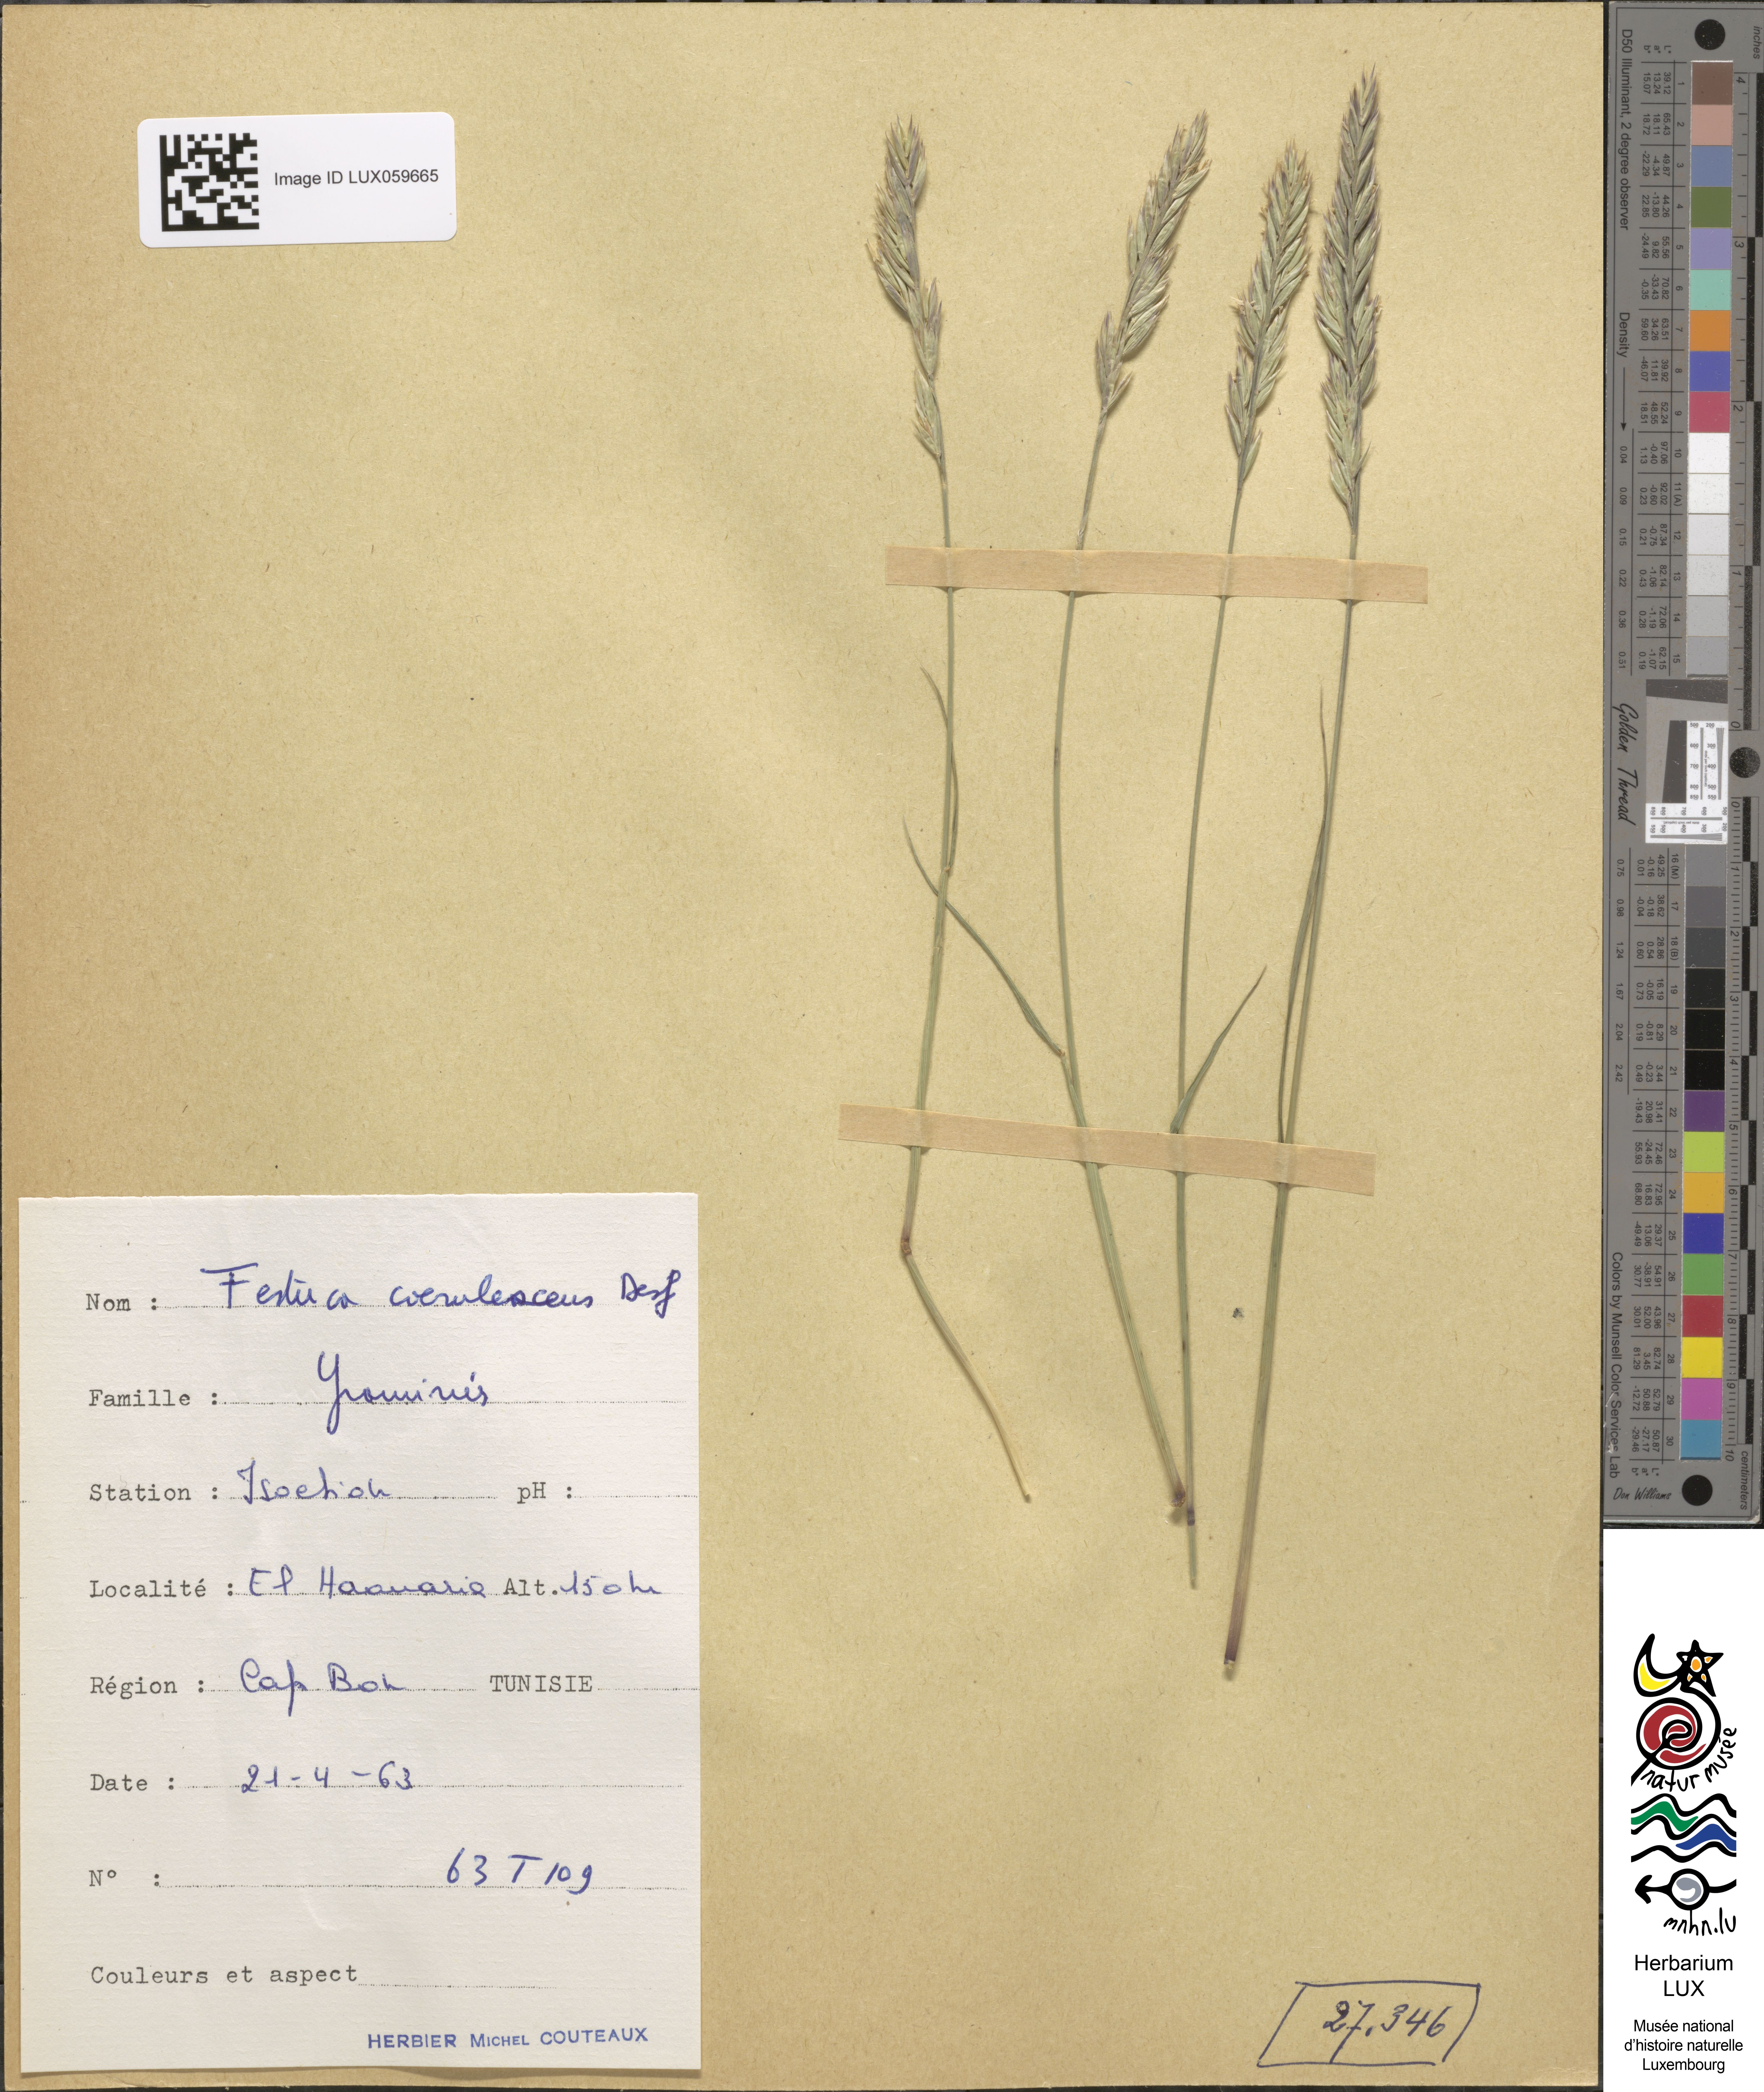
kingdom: Plantae
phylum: Tracheophyta
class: Liliopsida
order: Poales
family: Poaceae
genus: Festuca
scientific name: Festuca caerulescens
